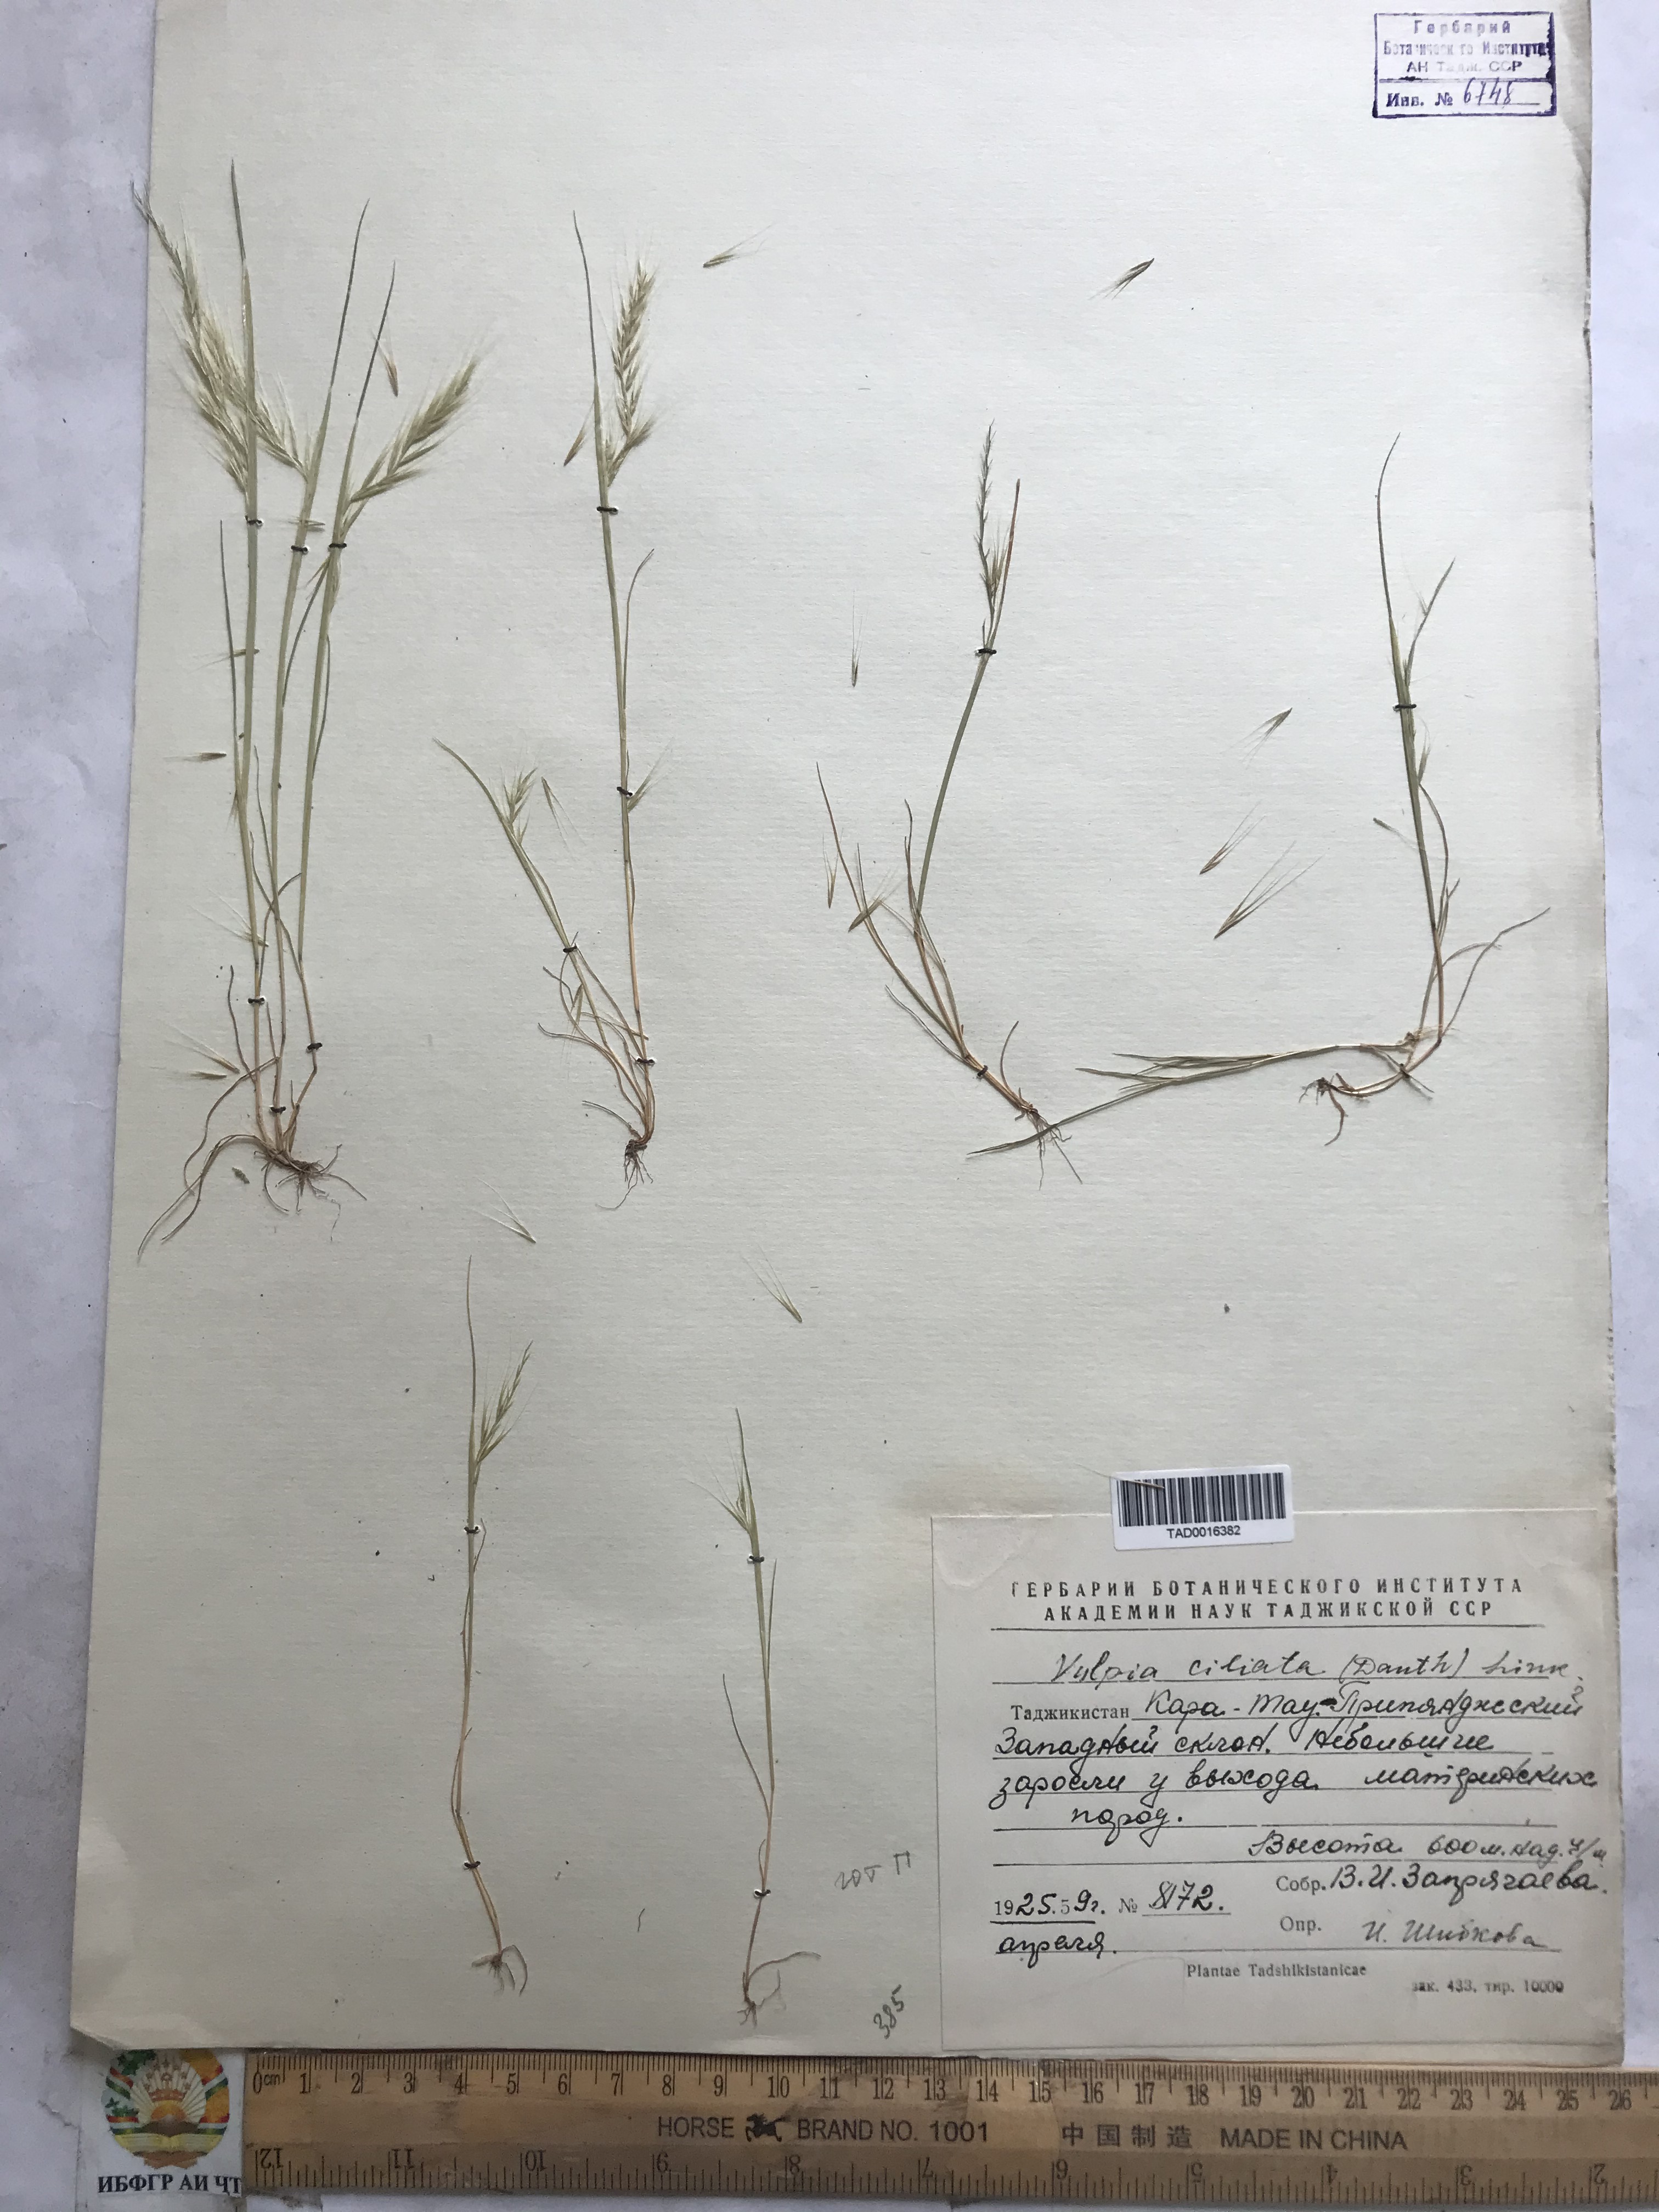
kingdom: Plantae
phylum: Tracheophyta
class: Liliopsida
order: Poales
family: Poaceae
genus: Festuca
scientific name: Festuca ambigua
